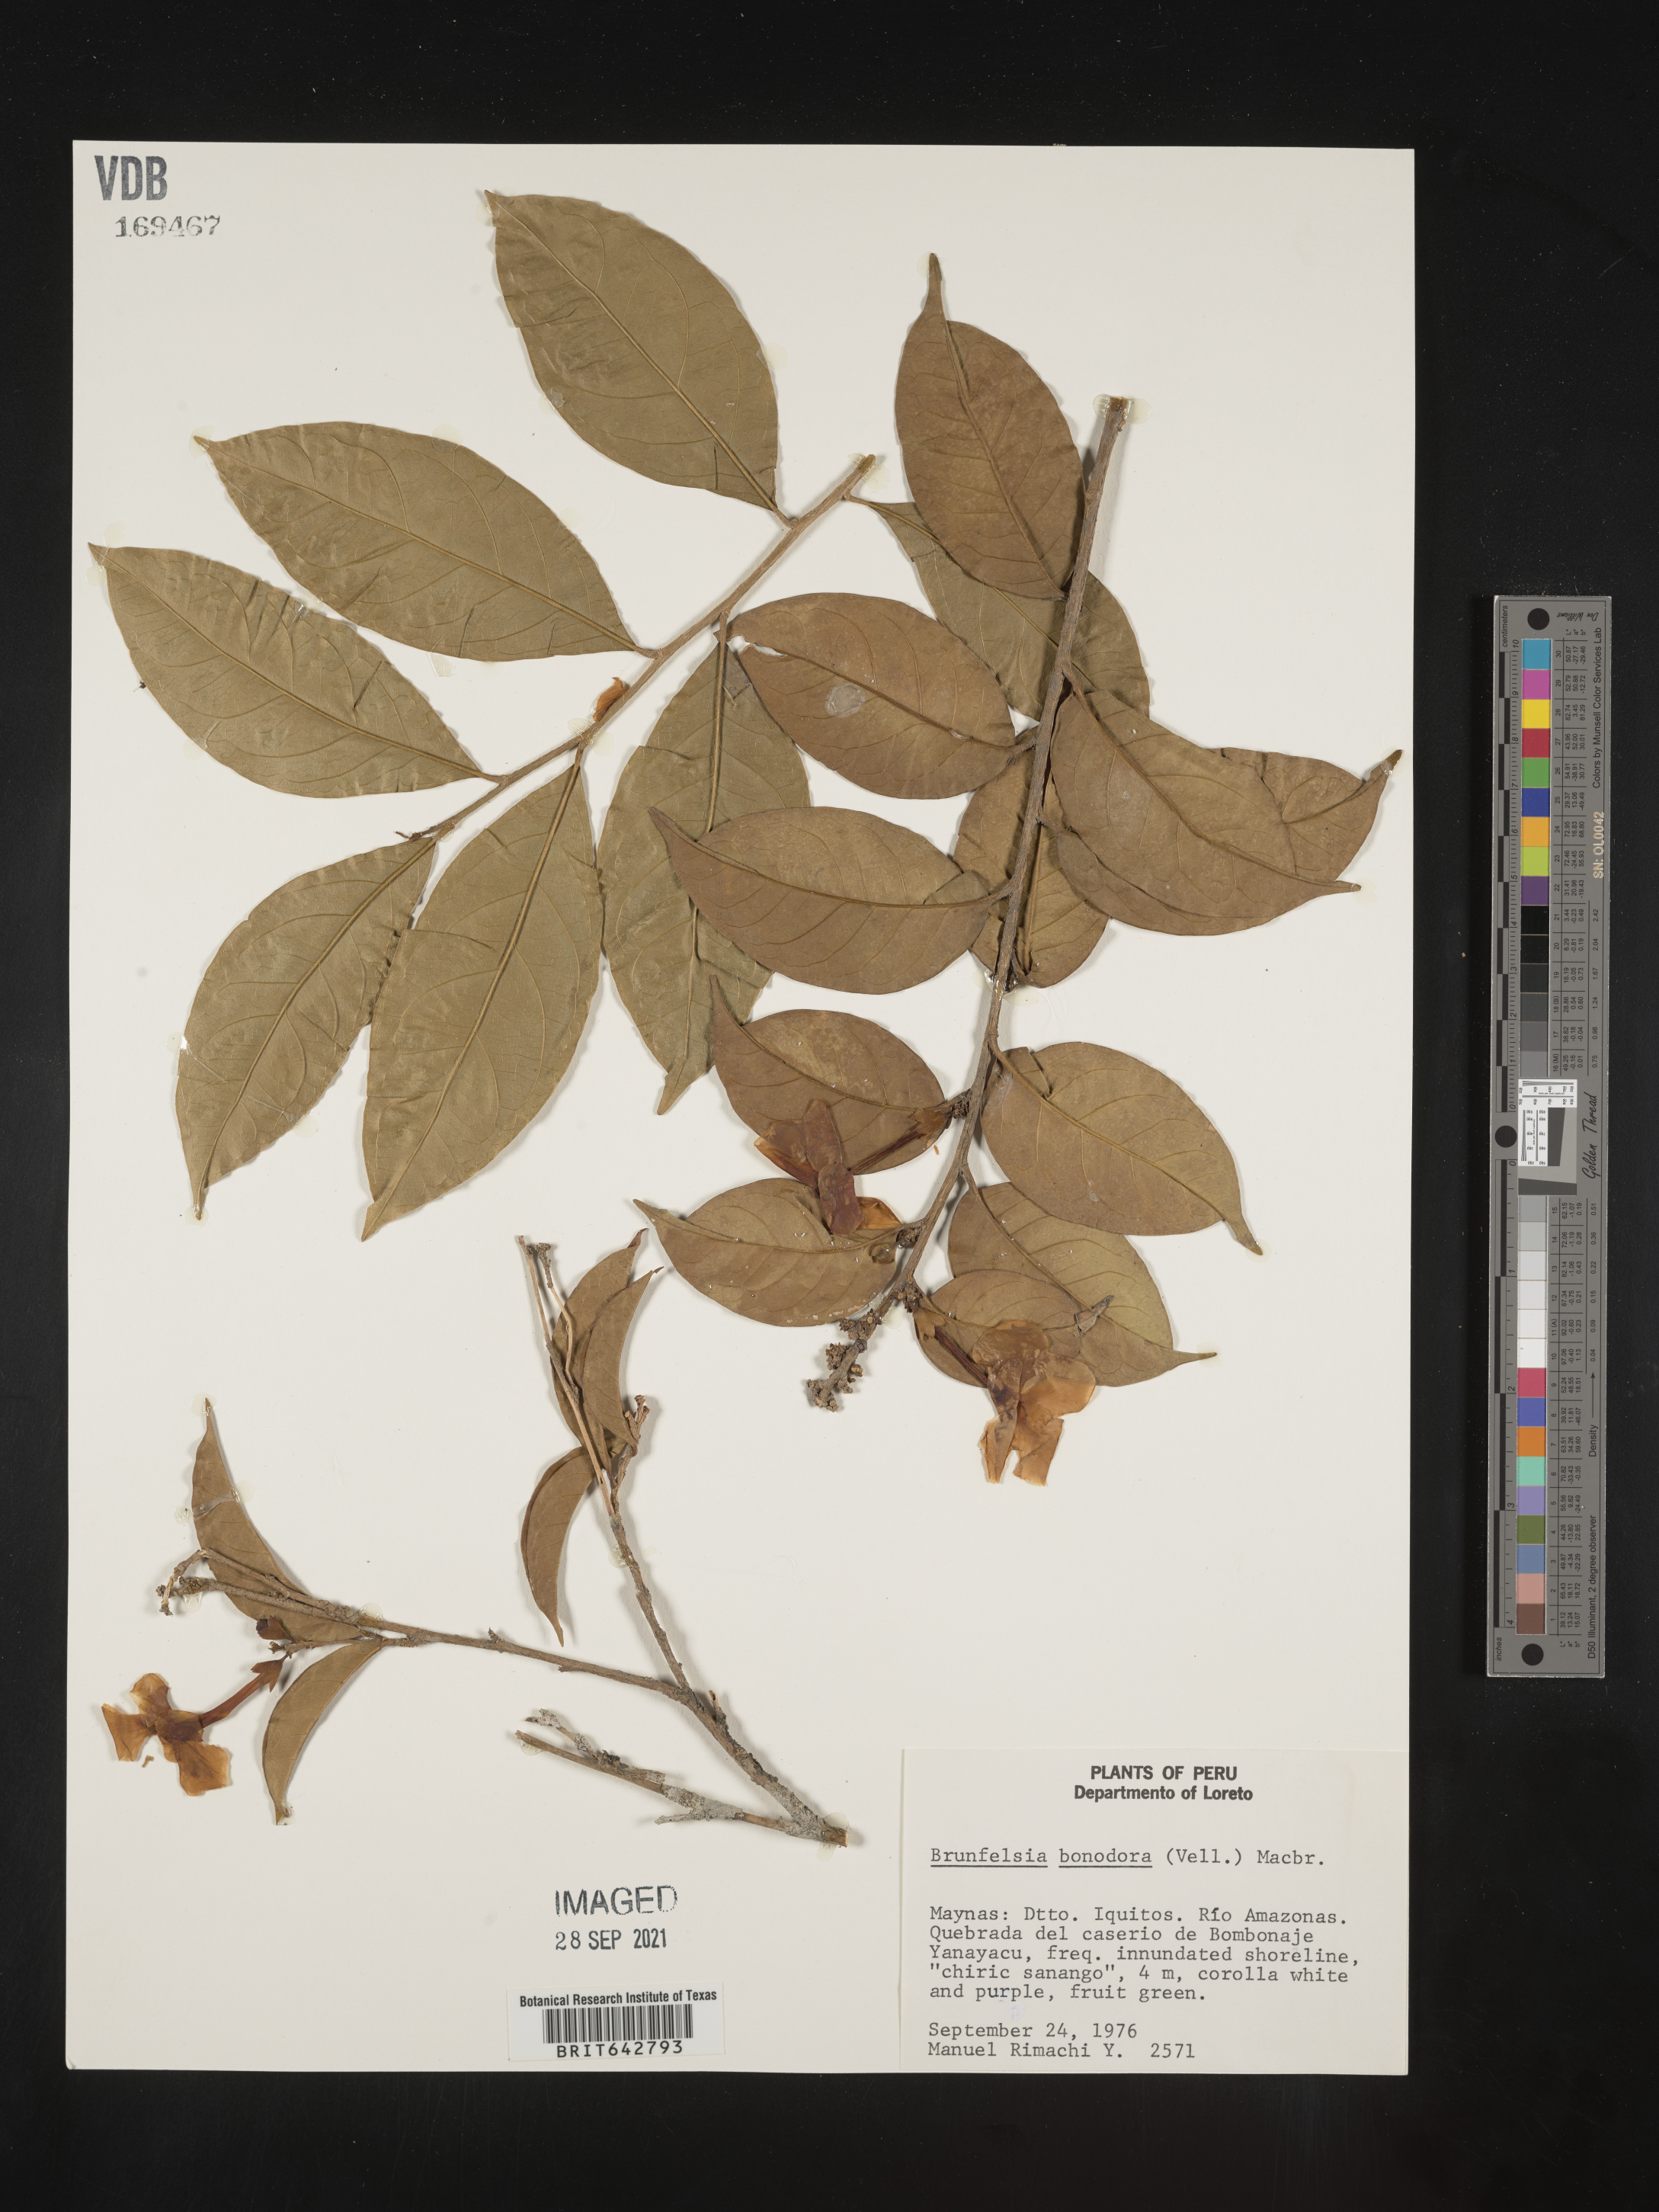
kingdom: Plantae
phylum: Tracheophyta
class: Magnoliopsida
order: Solanales
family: Solanaceae
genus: Brunfelsia
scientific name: Brunfelsia
